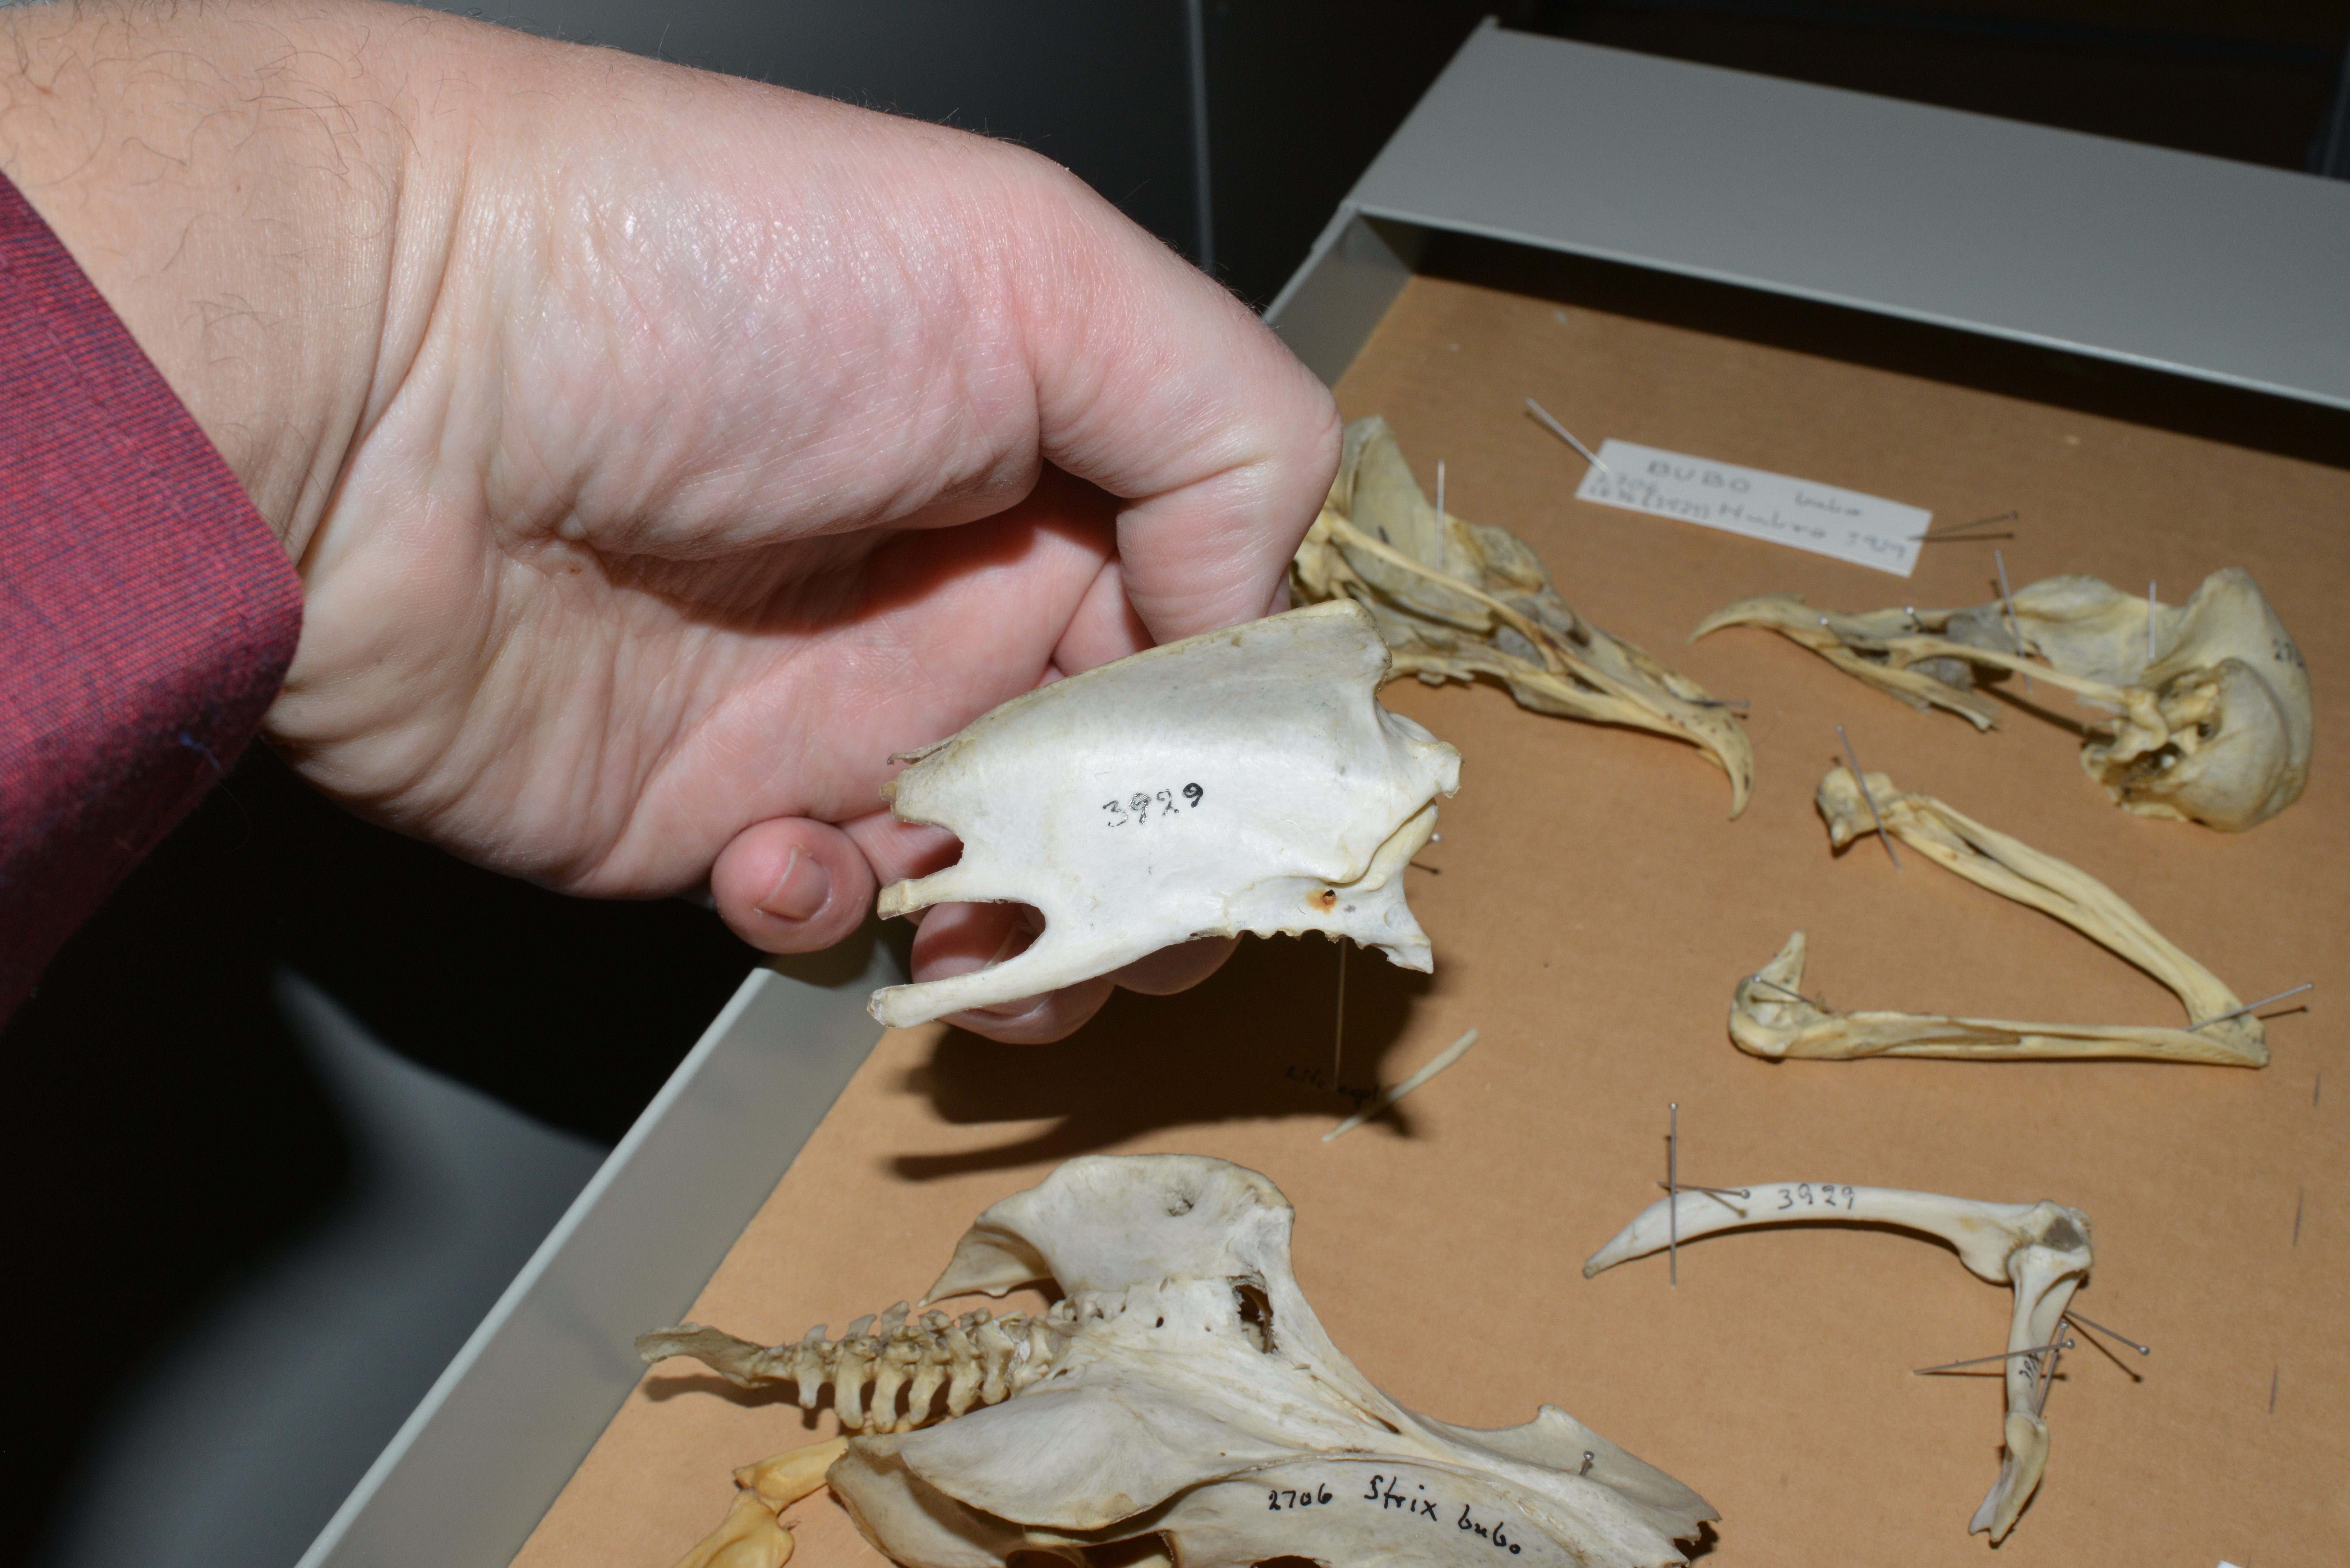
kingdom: Animalia
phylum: Chordata
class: Aves
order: Strigiformes
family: Strigidae
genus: Bubo
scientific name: Bubo bubo
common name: Eurasian eagle-owl
